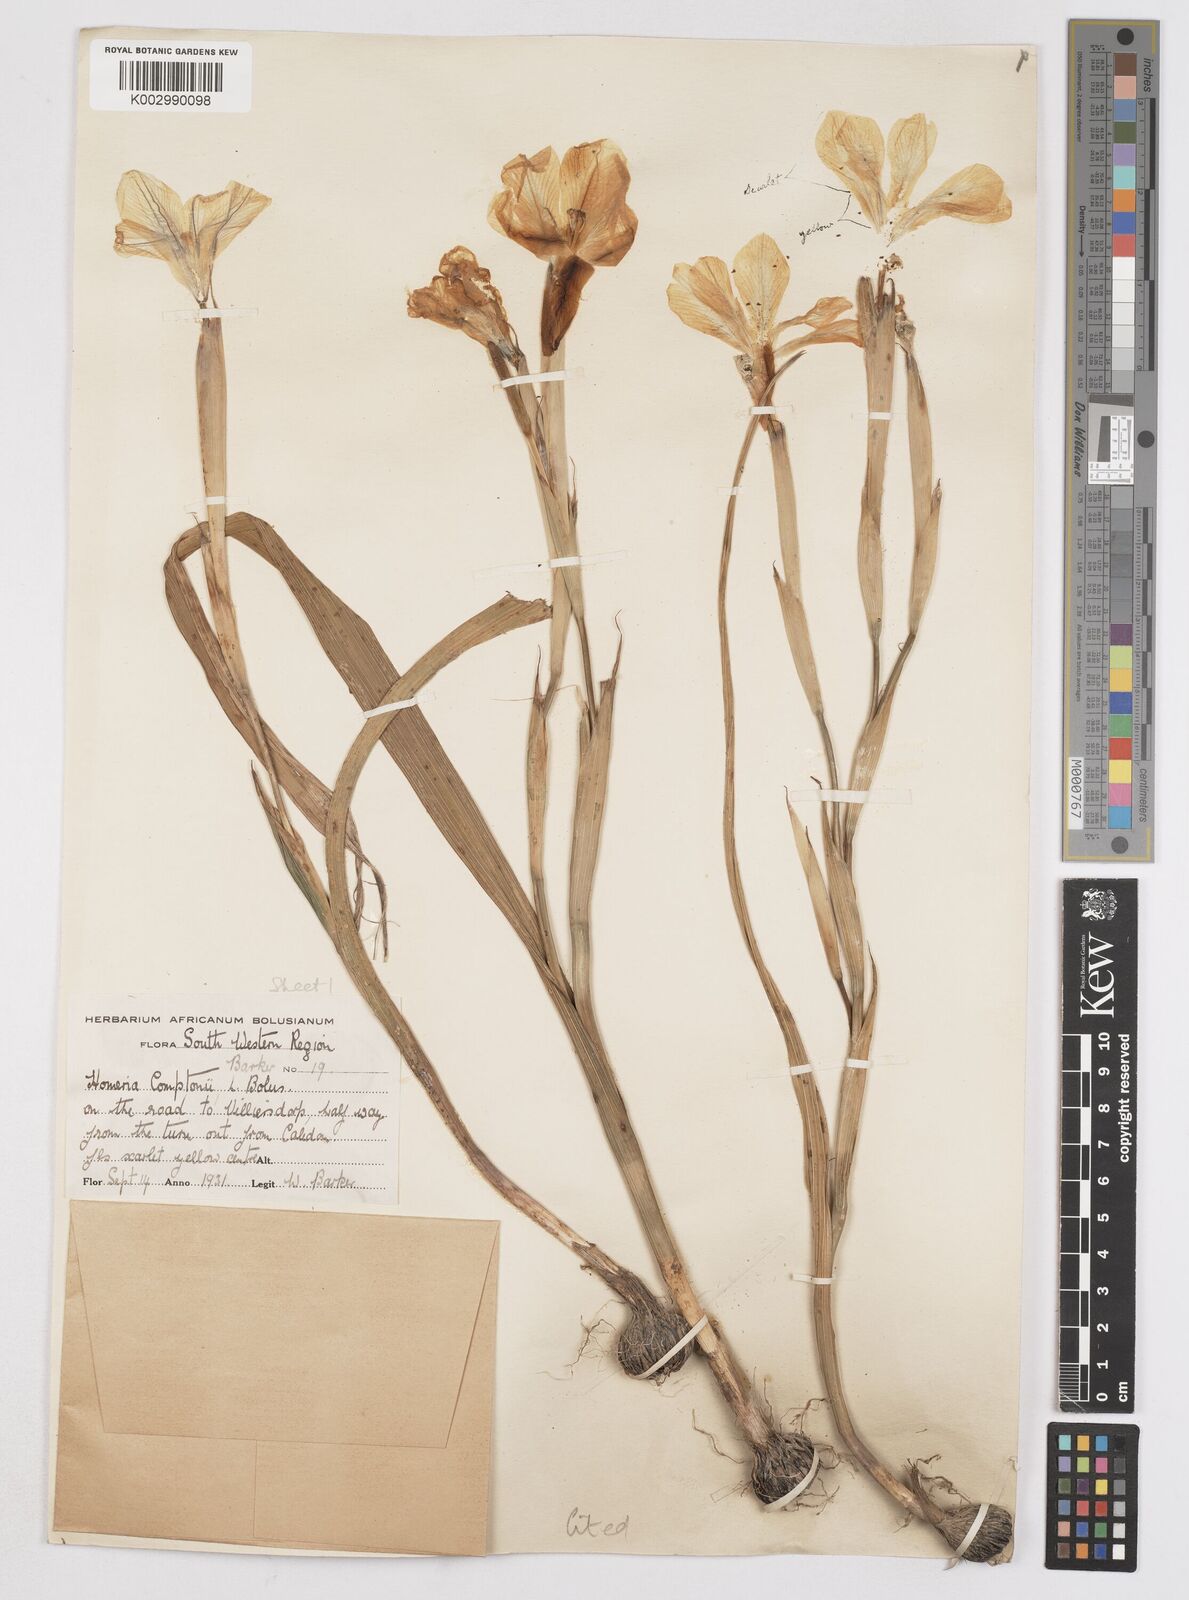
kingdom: Plantae
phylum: Tracheophyta
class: Liliopsida
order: Asparagales
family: Iridaceae
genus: Moraea
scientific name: Moraea comptonii
